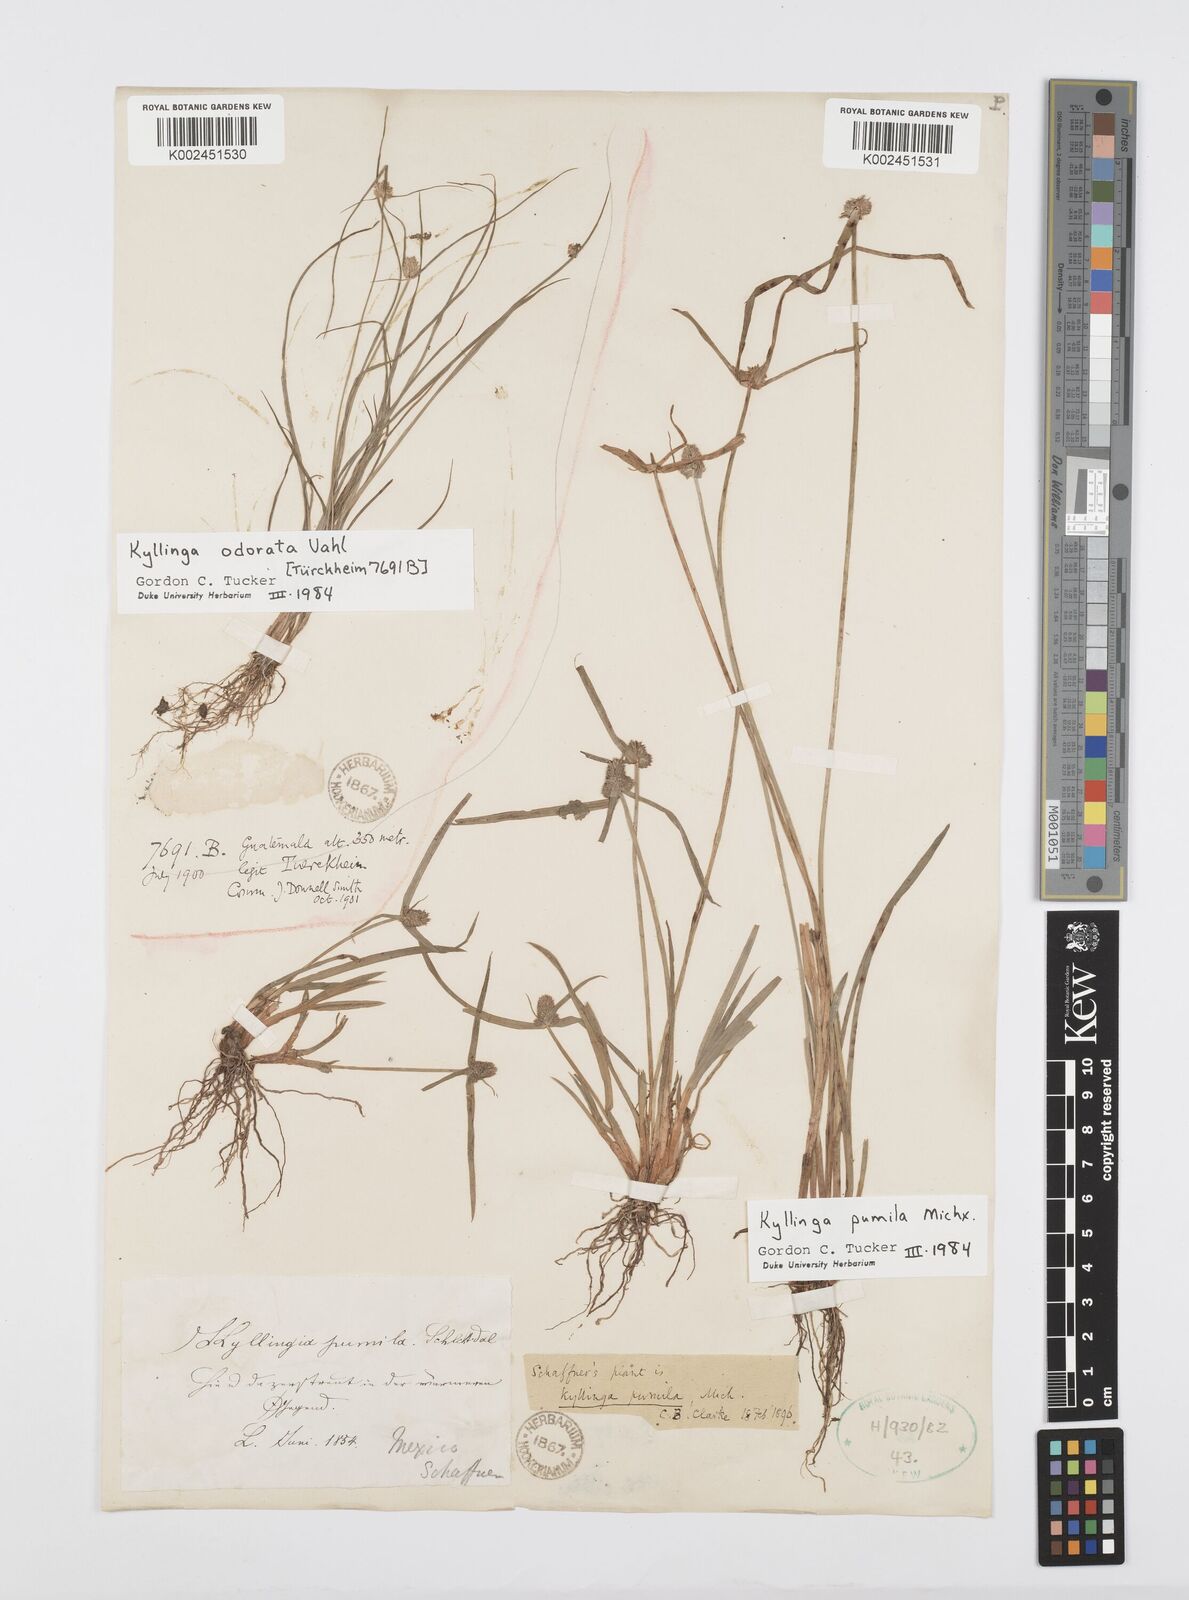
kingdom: Plantae
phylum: Tracheophyta
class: Liliopsida
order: Poales
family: Cyperaceae
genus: Cyperus
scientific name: Cyperus hortensis
